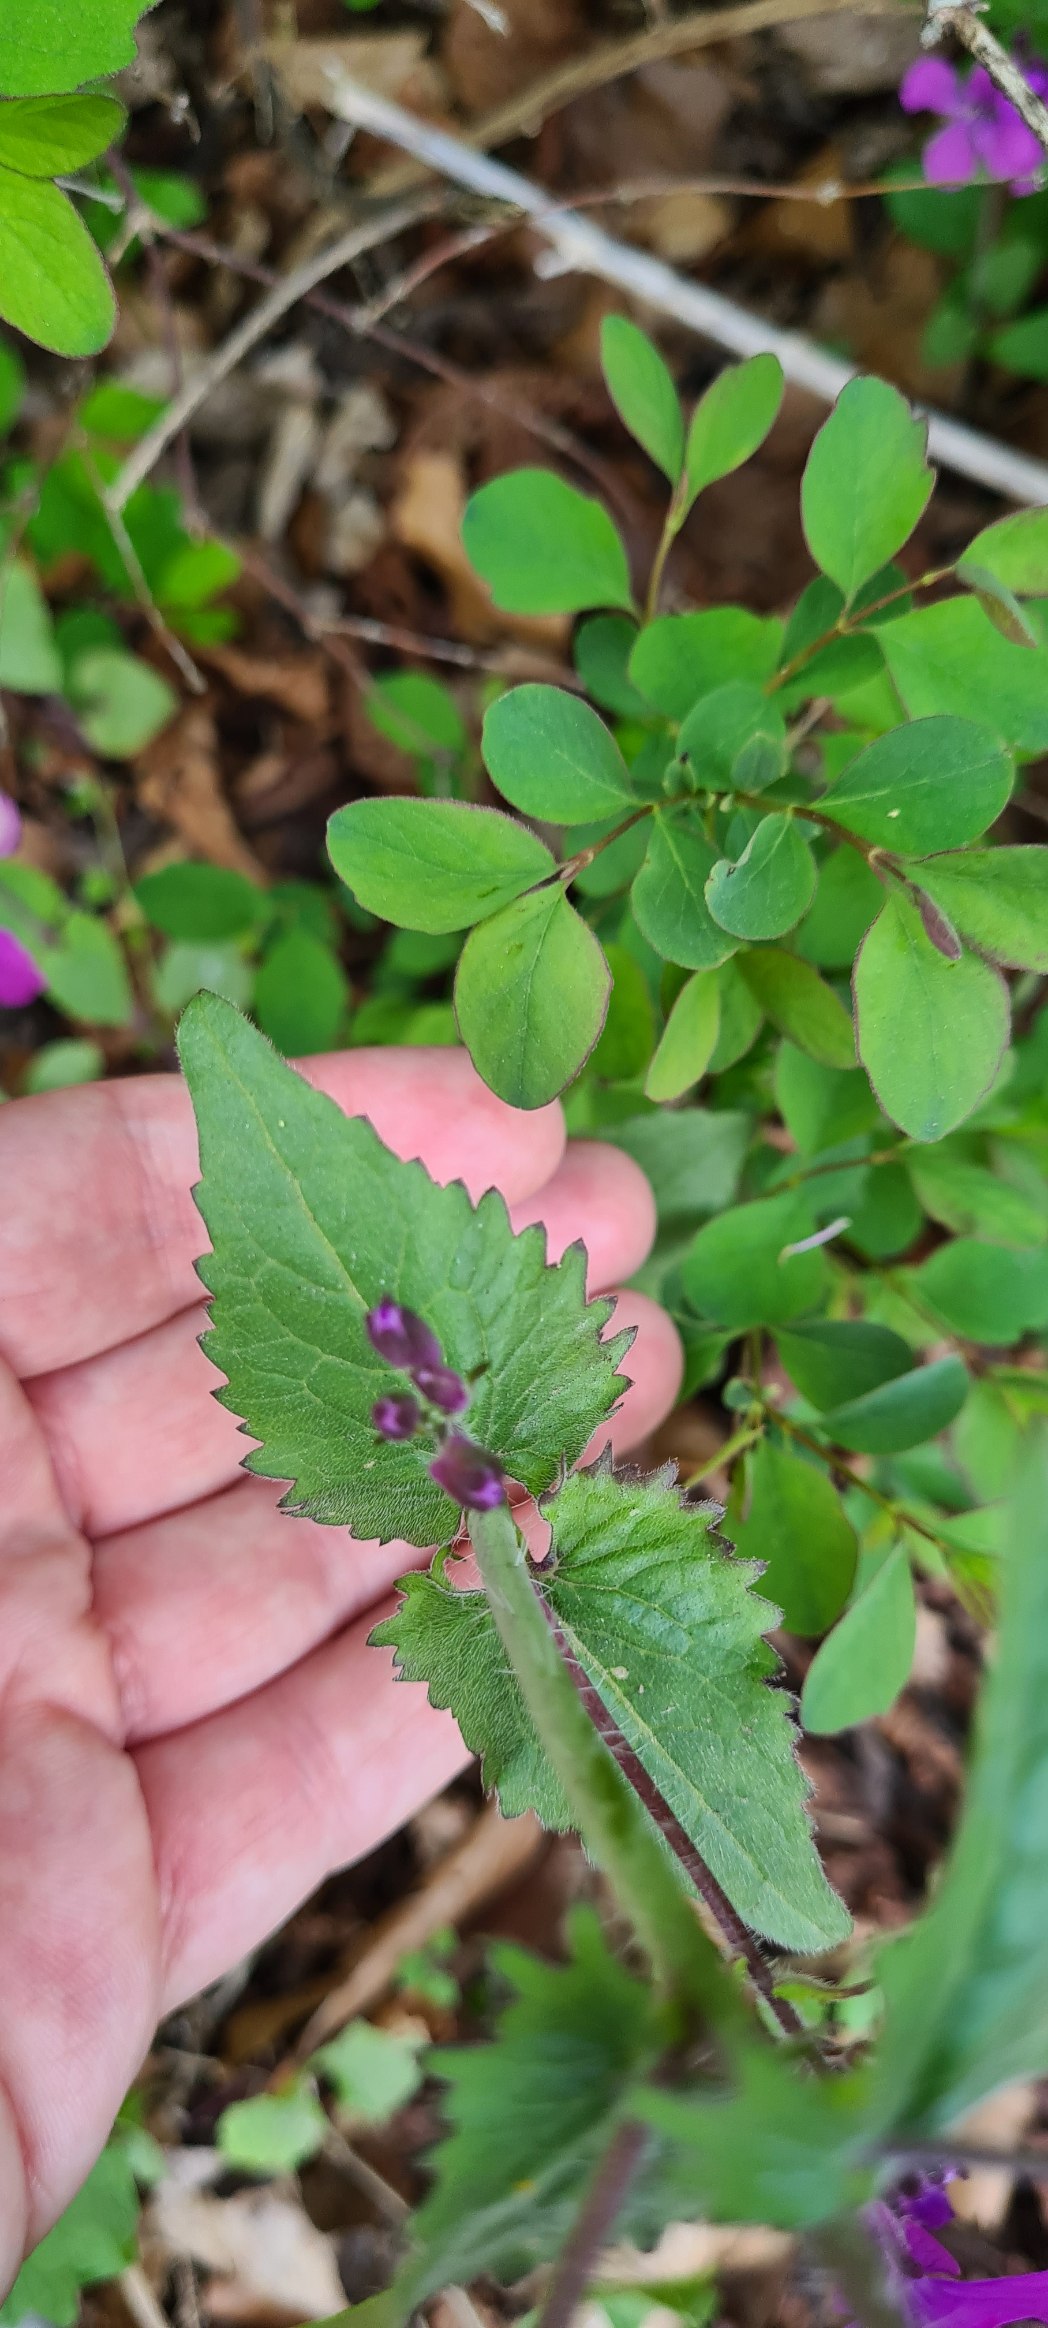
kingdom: Plantae
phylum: Tracheophyta
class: Magnoliopsida
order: Brassicales
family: Brassicaceae
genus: Lunaria
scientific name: Lunaria annua
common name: Judaspenge
